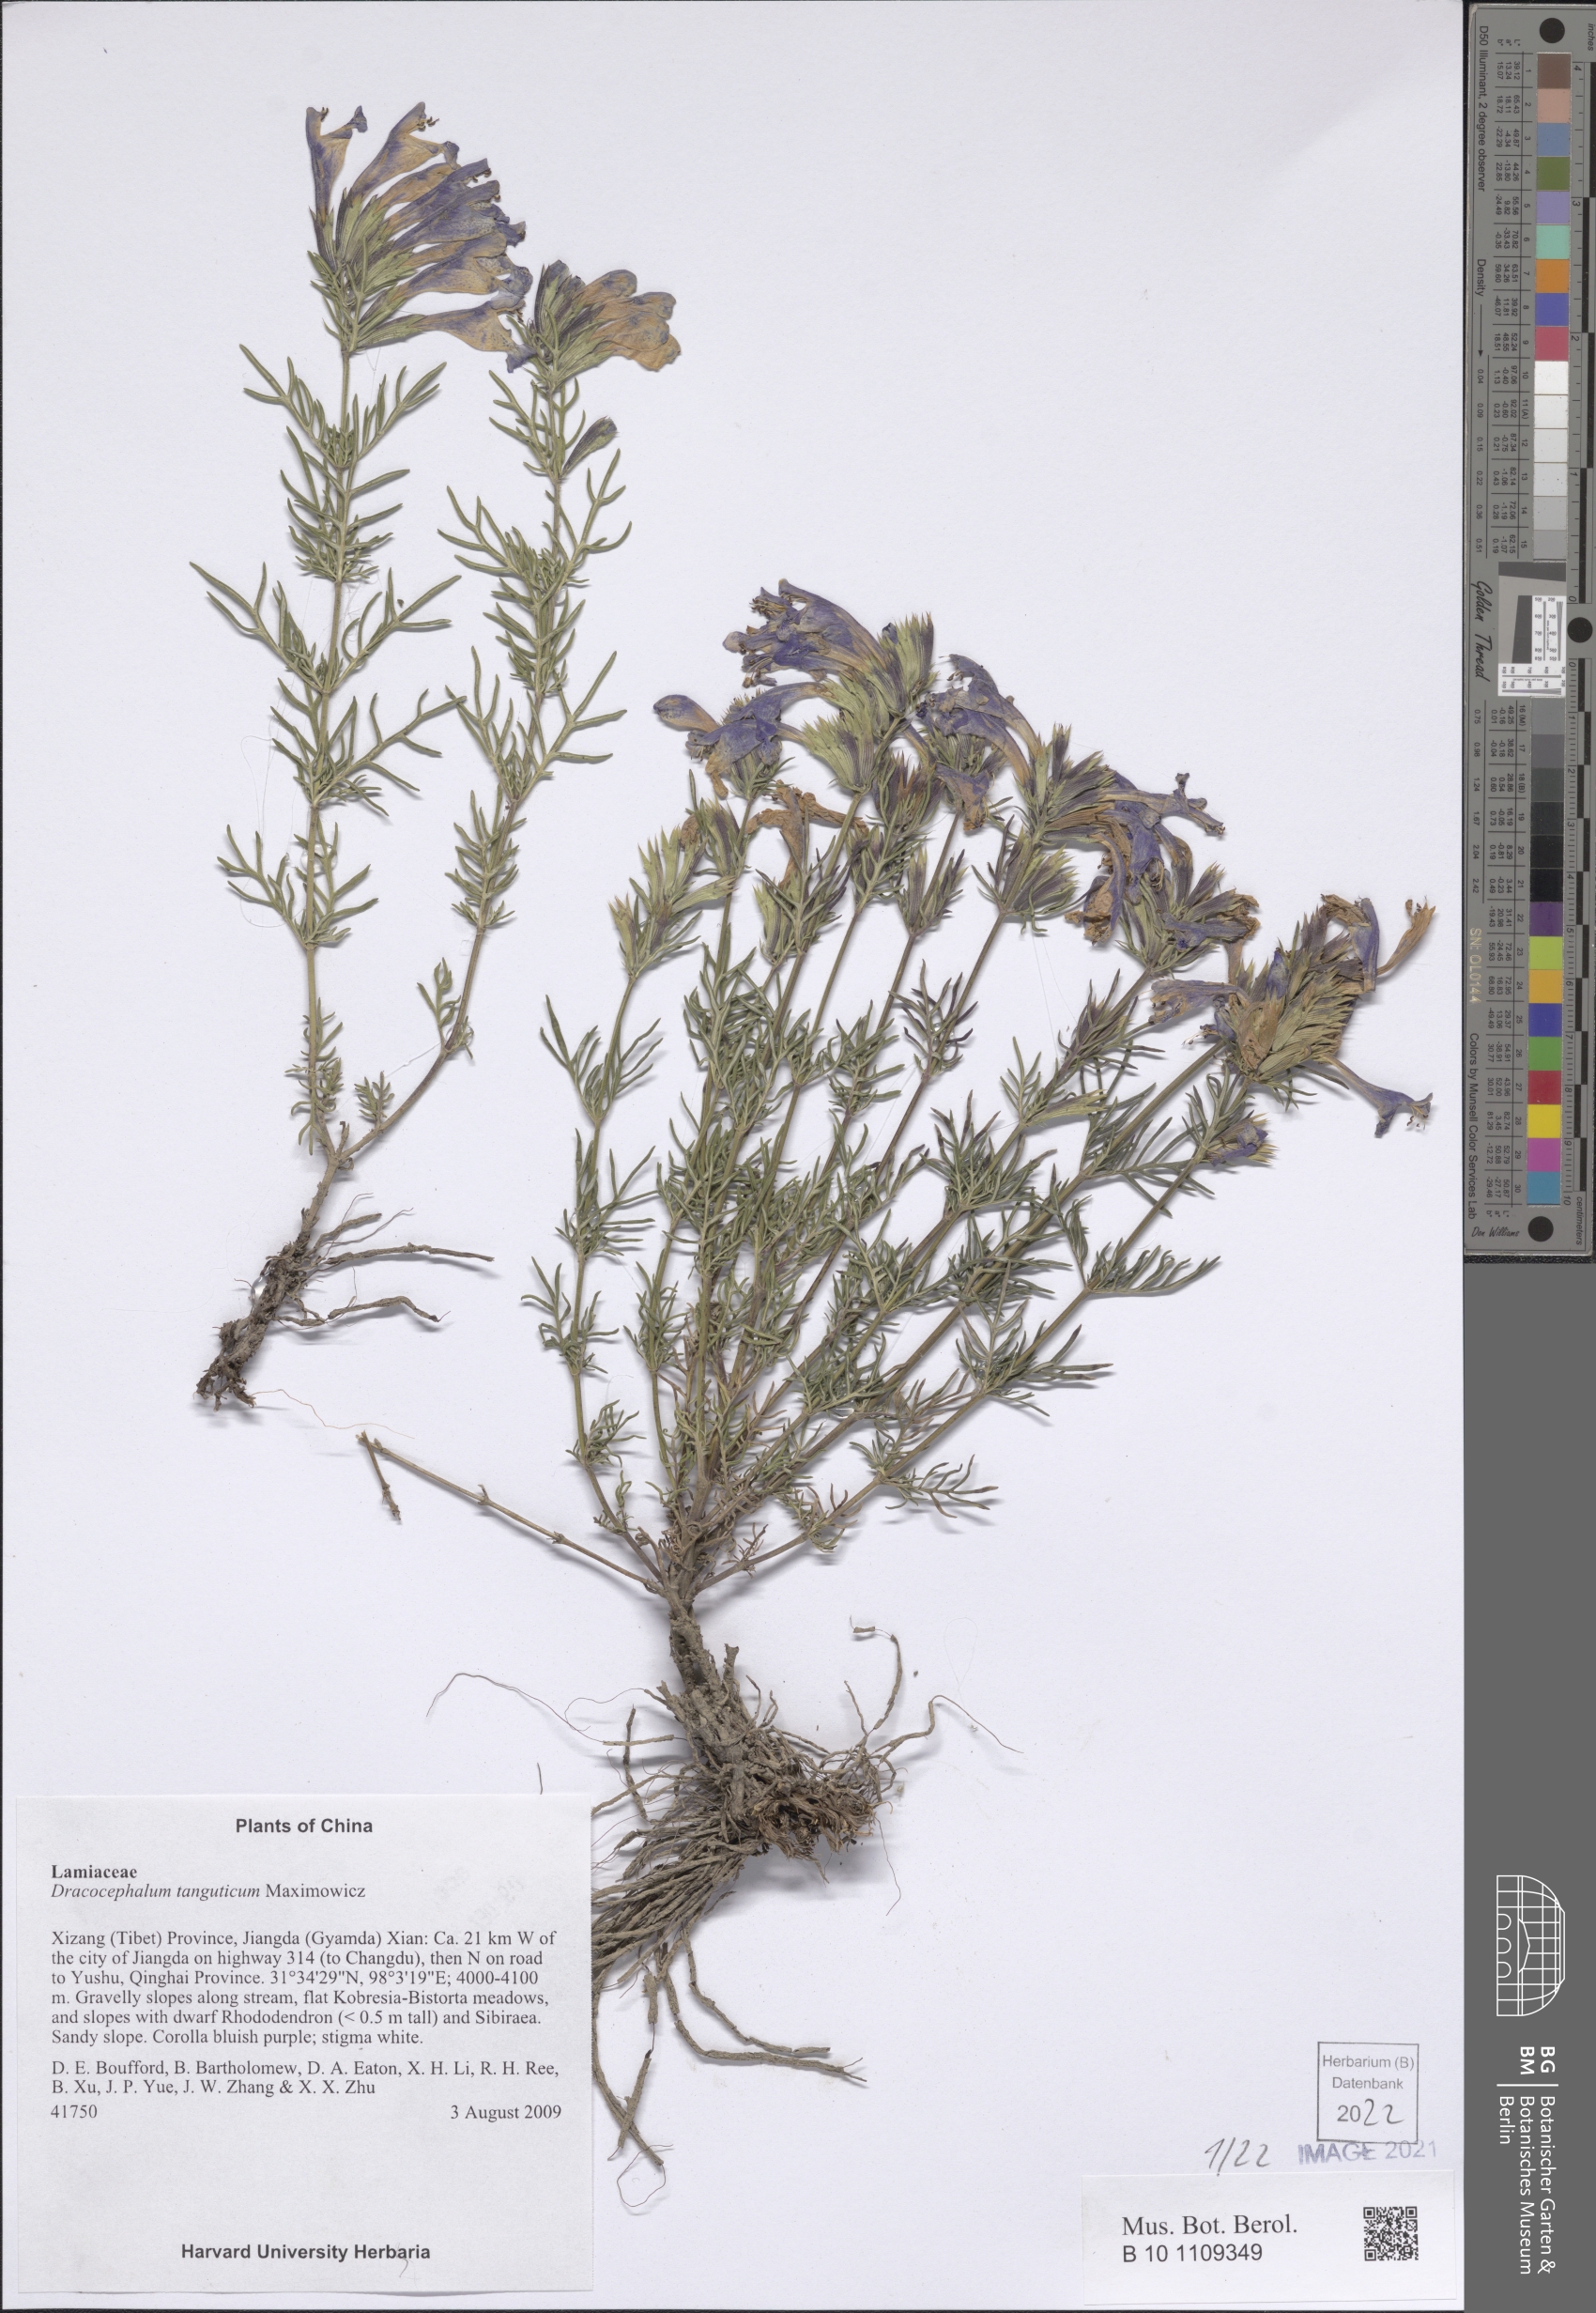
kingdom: Plantae
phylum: Tracheophyta
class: Magnoliopsida
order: Lamiales
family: Lamiaceae
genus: Dracocephalum
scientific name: Dracocephalum tanguticum
